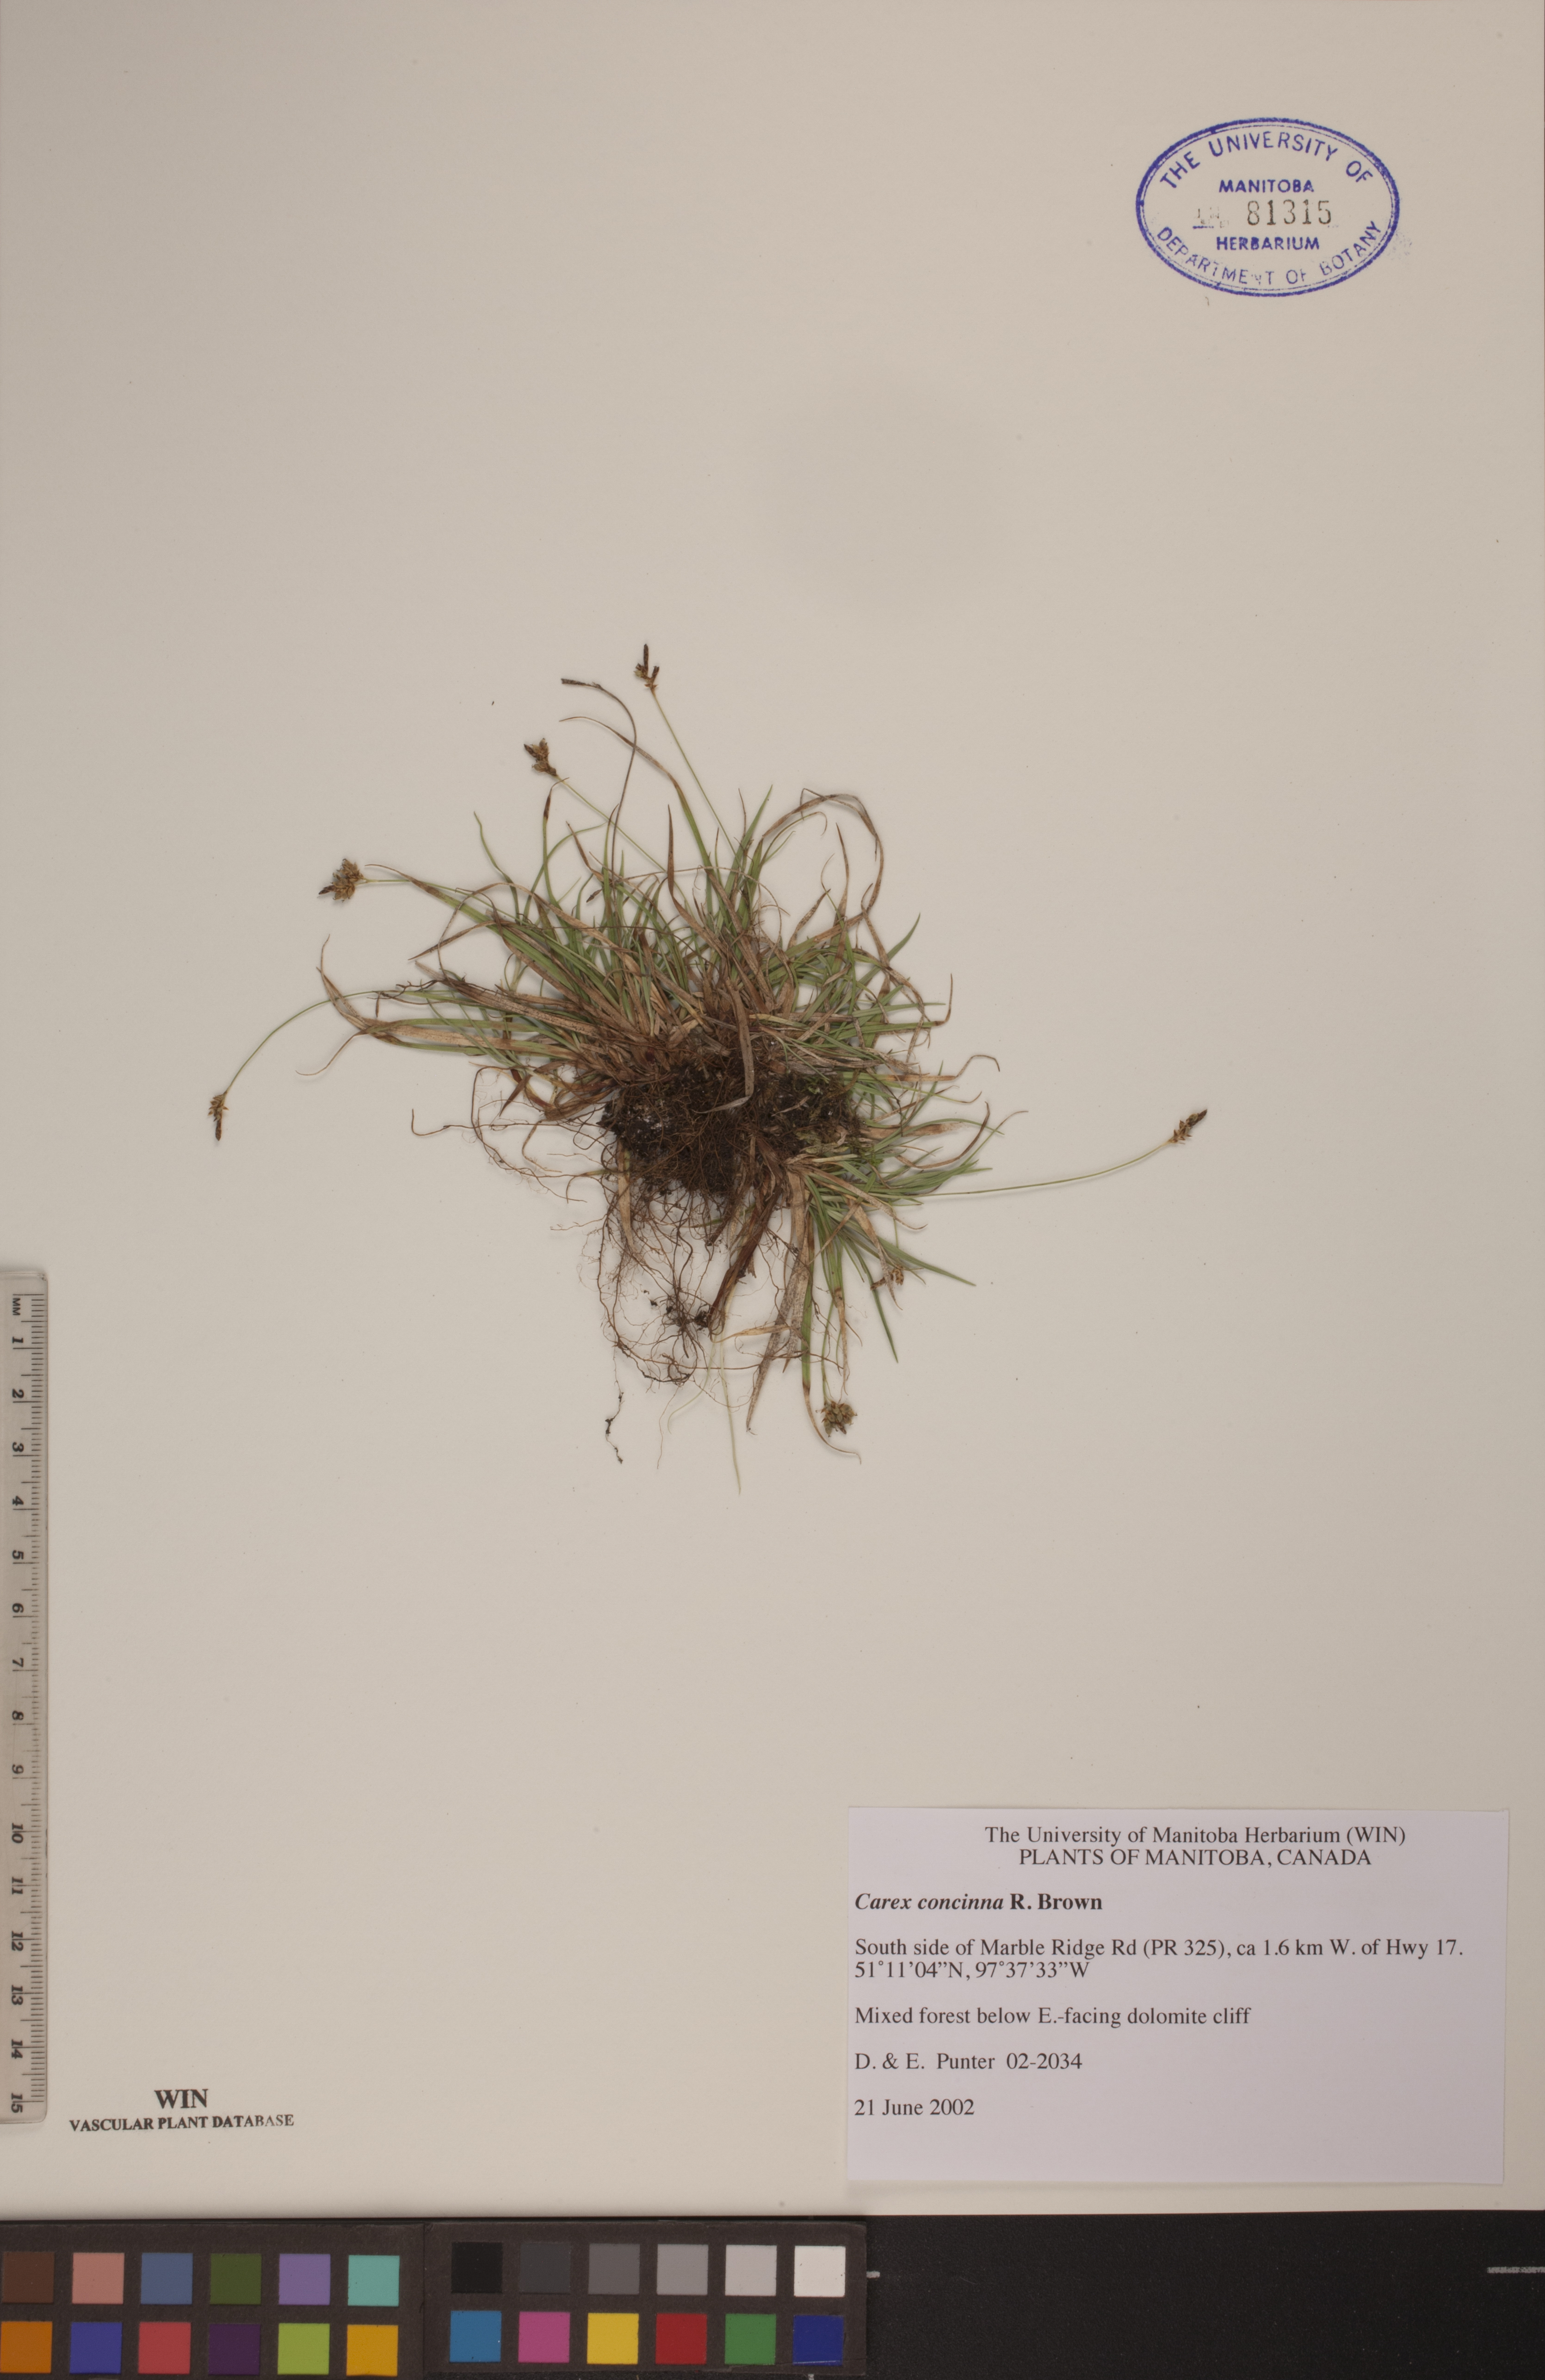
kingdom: Plantae
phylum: Tracheophyta
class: Liliopsida
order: Poales
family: Cyperaceae
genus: Carex
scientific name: Carex concinna
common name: Beautiful sedge
